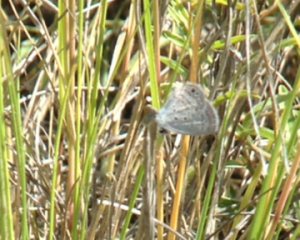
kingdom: Animalia
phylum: Arthropoda
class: Insecta
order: Lepidoptera
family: Lycaenidae
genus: Hemiargus
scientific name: Hemiargus ceraunus
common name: Ceraunus Blue
